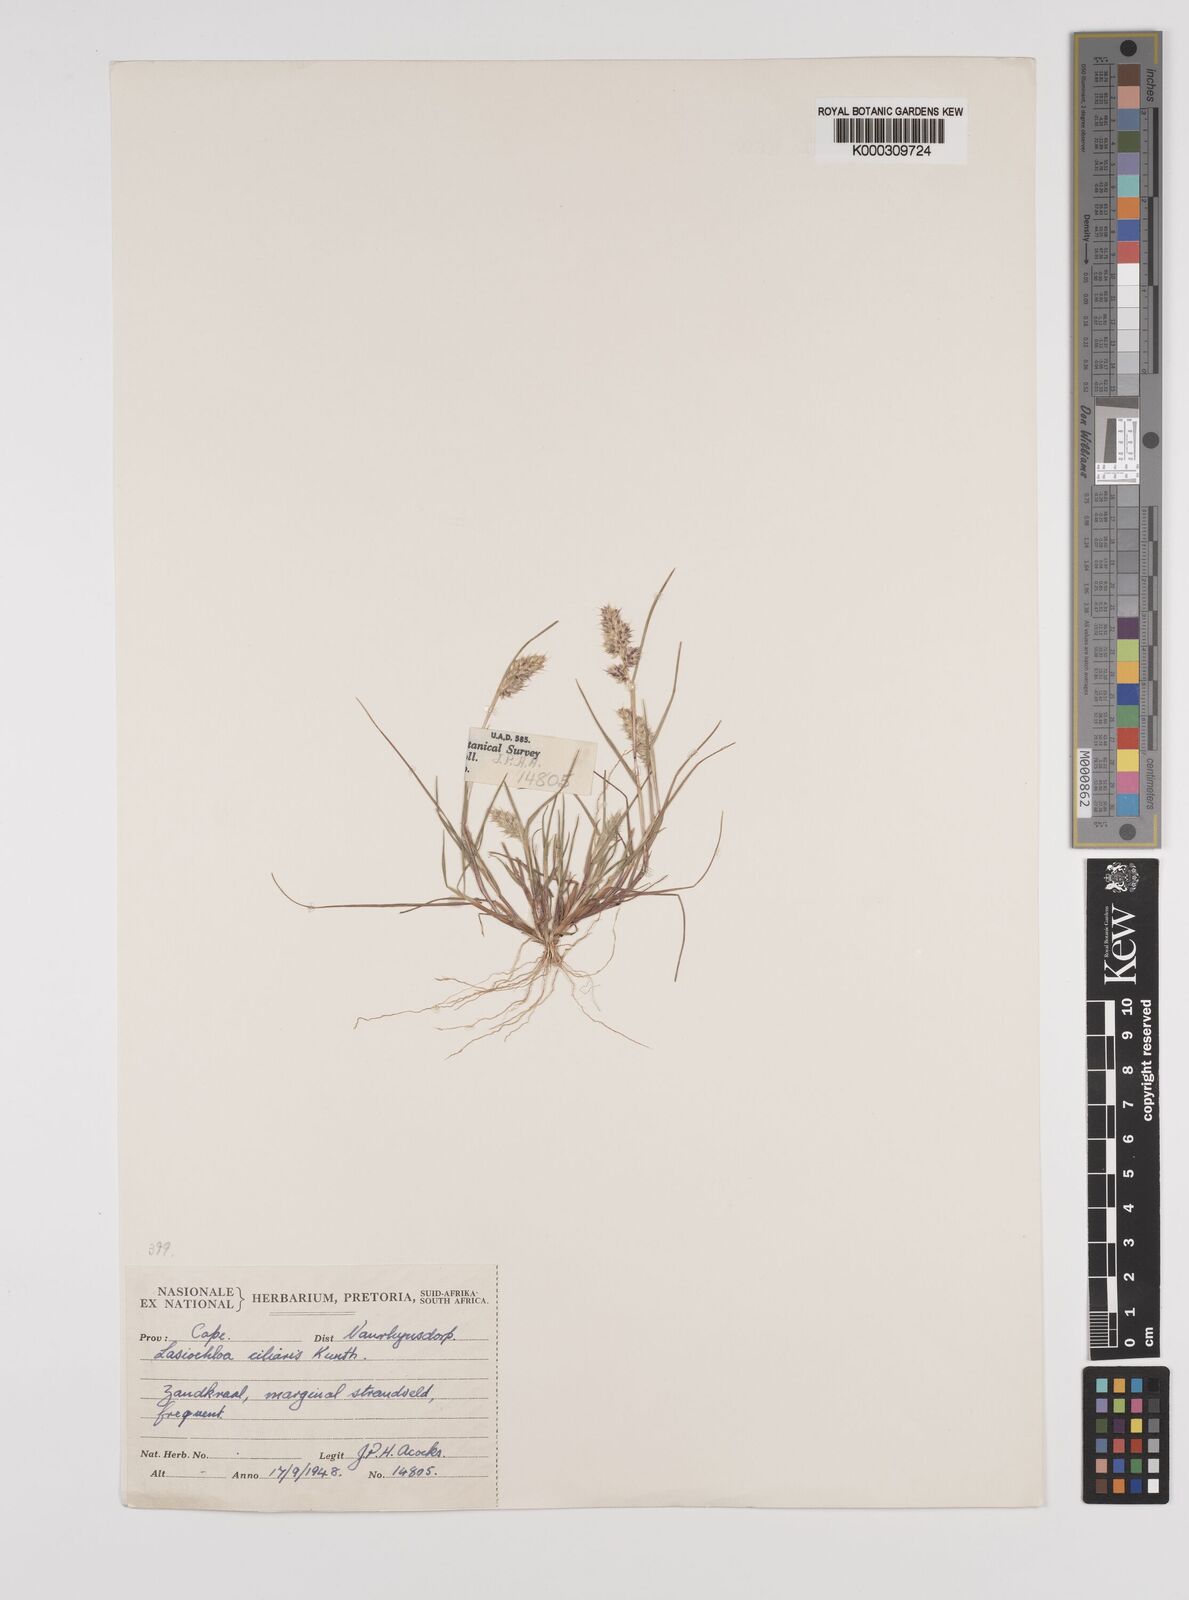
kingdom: Plantae
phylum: Tracheophyta
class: Liliopsida
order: Poales
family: Poaceae
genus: Tribolium
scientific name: Tribolium echinatum
